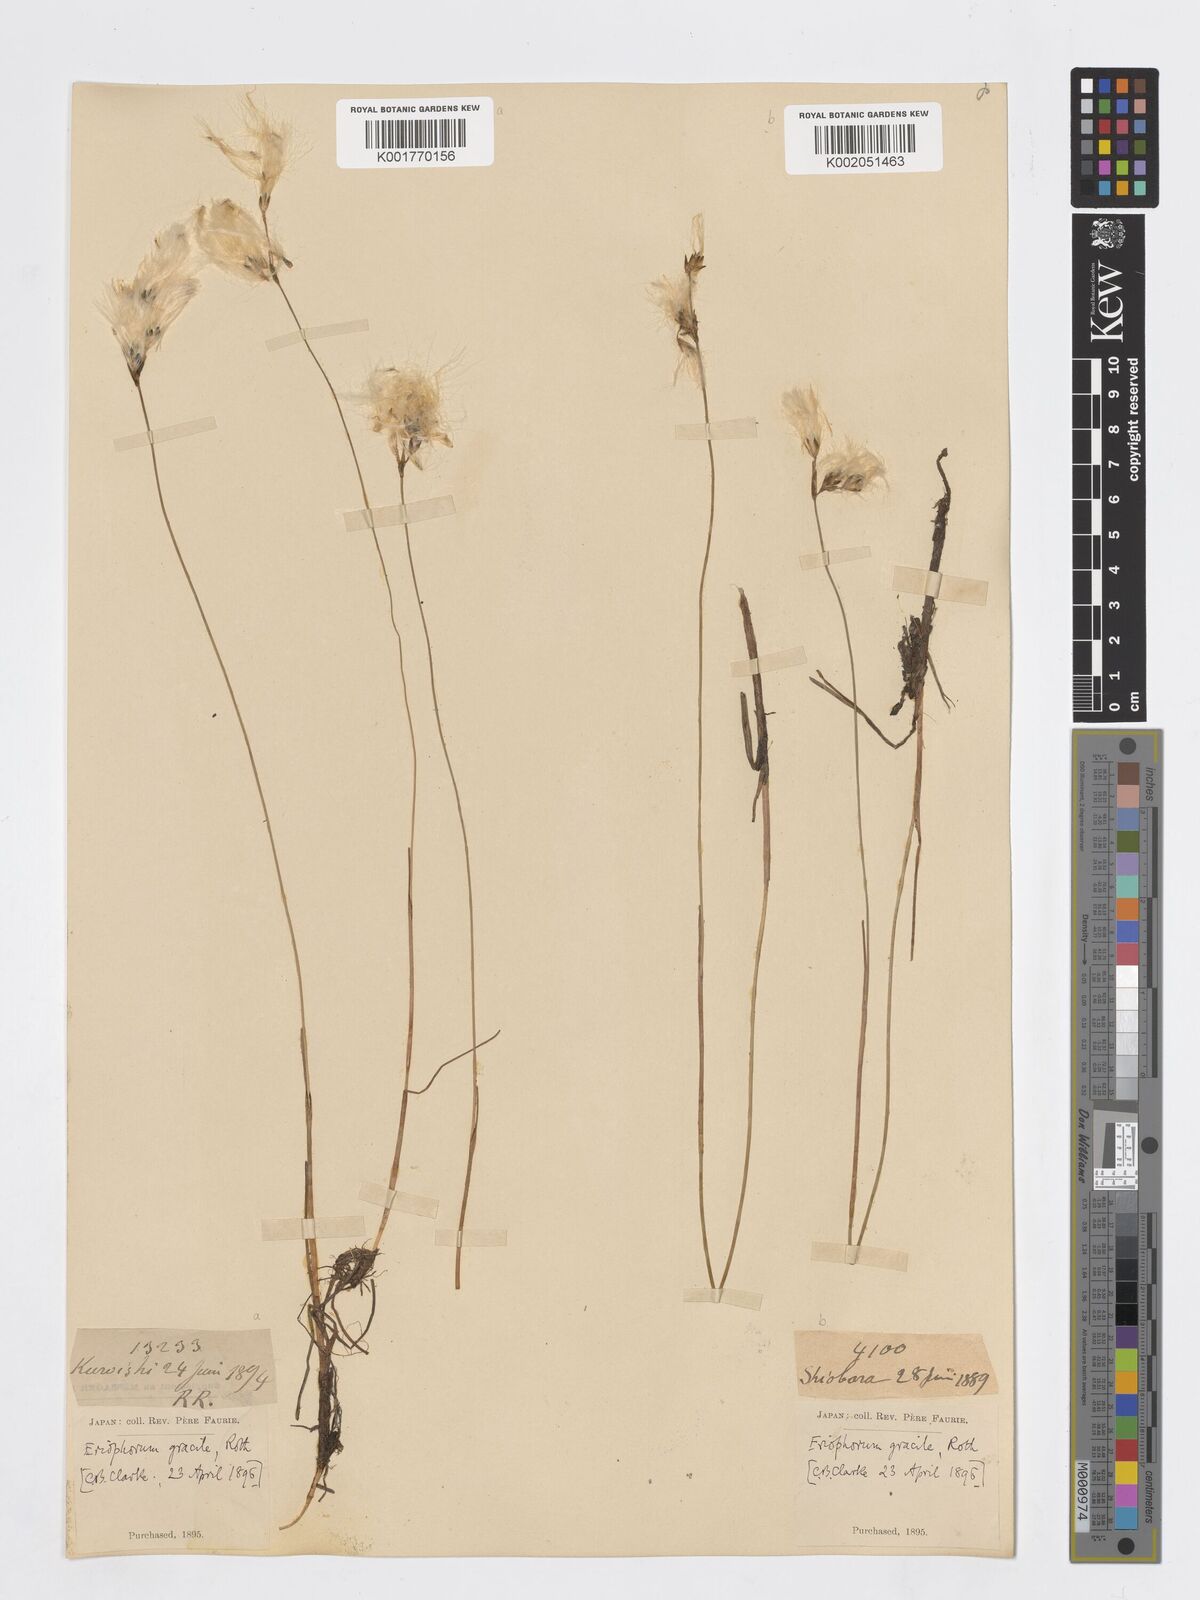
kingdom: Plantae
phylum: Tracheophyta
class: Liliopsida
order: Poales
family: Cyperaceae
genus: Eriophorum
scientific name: Eriophorum gracile
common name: Slender cottongrass
